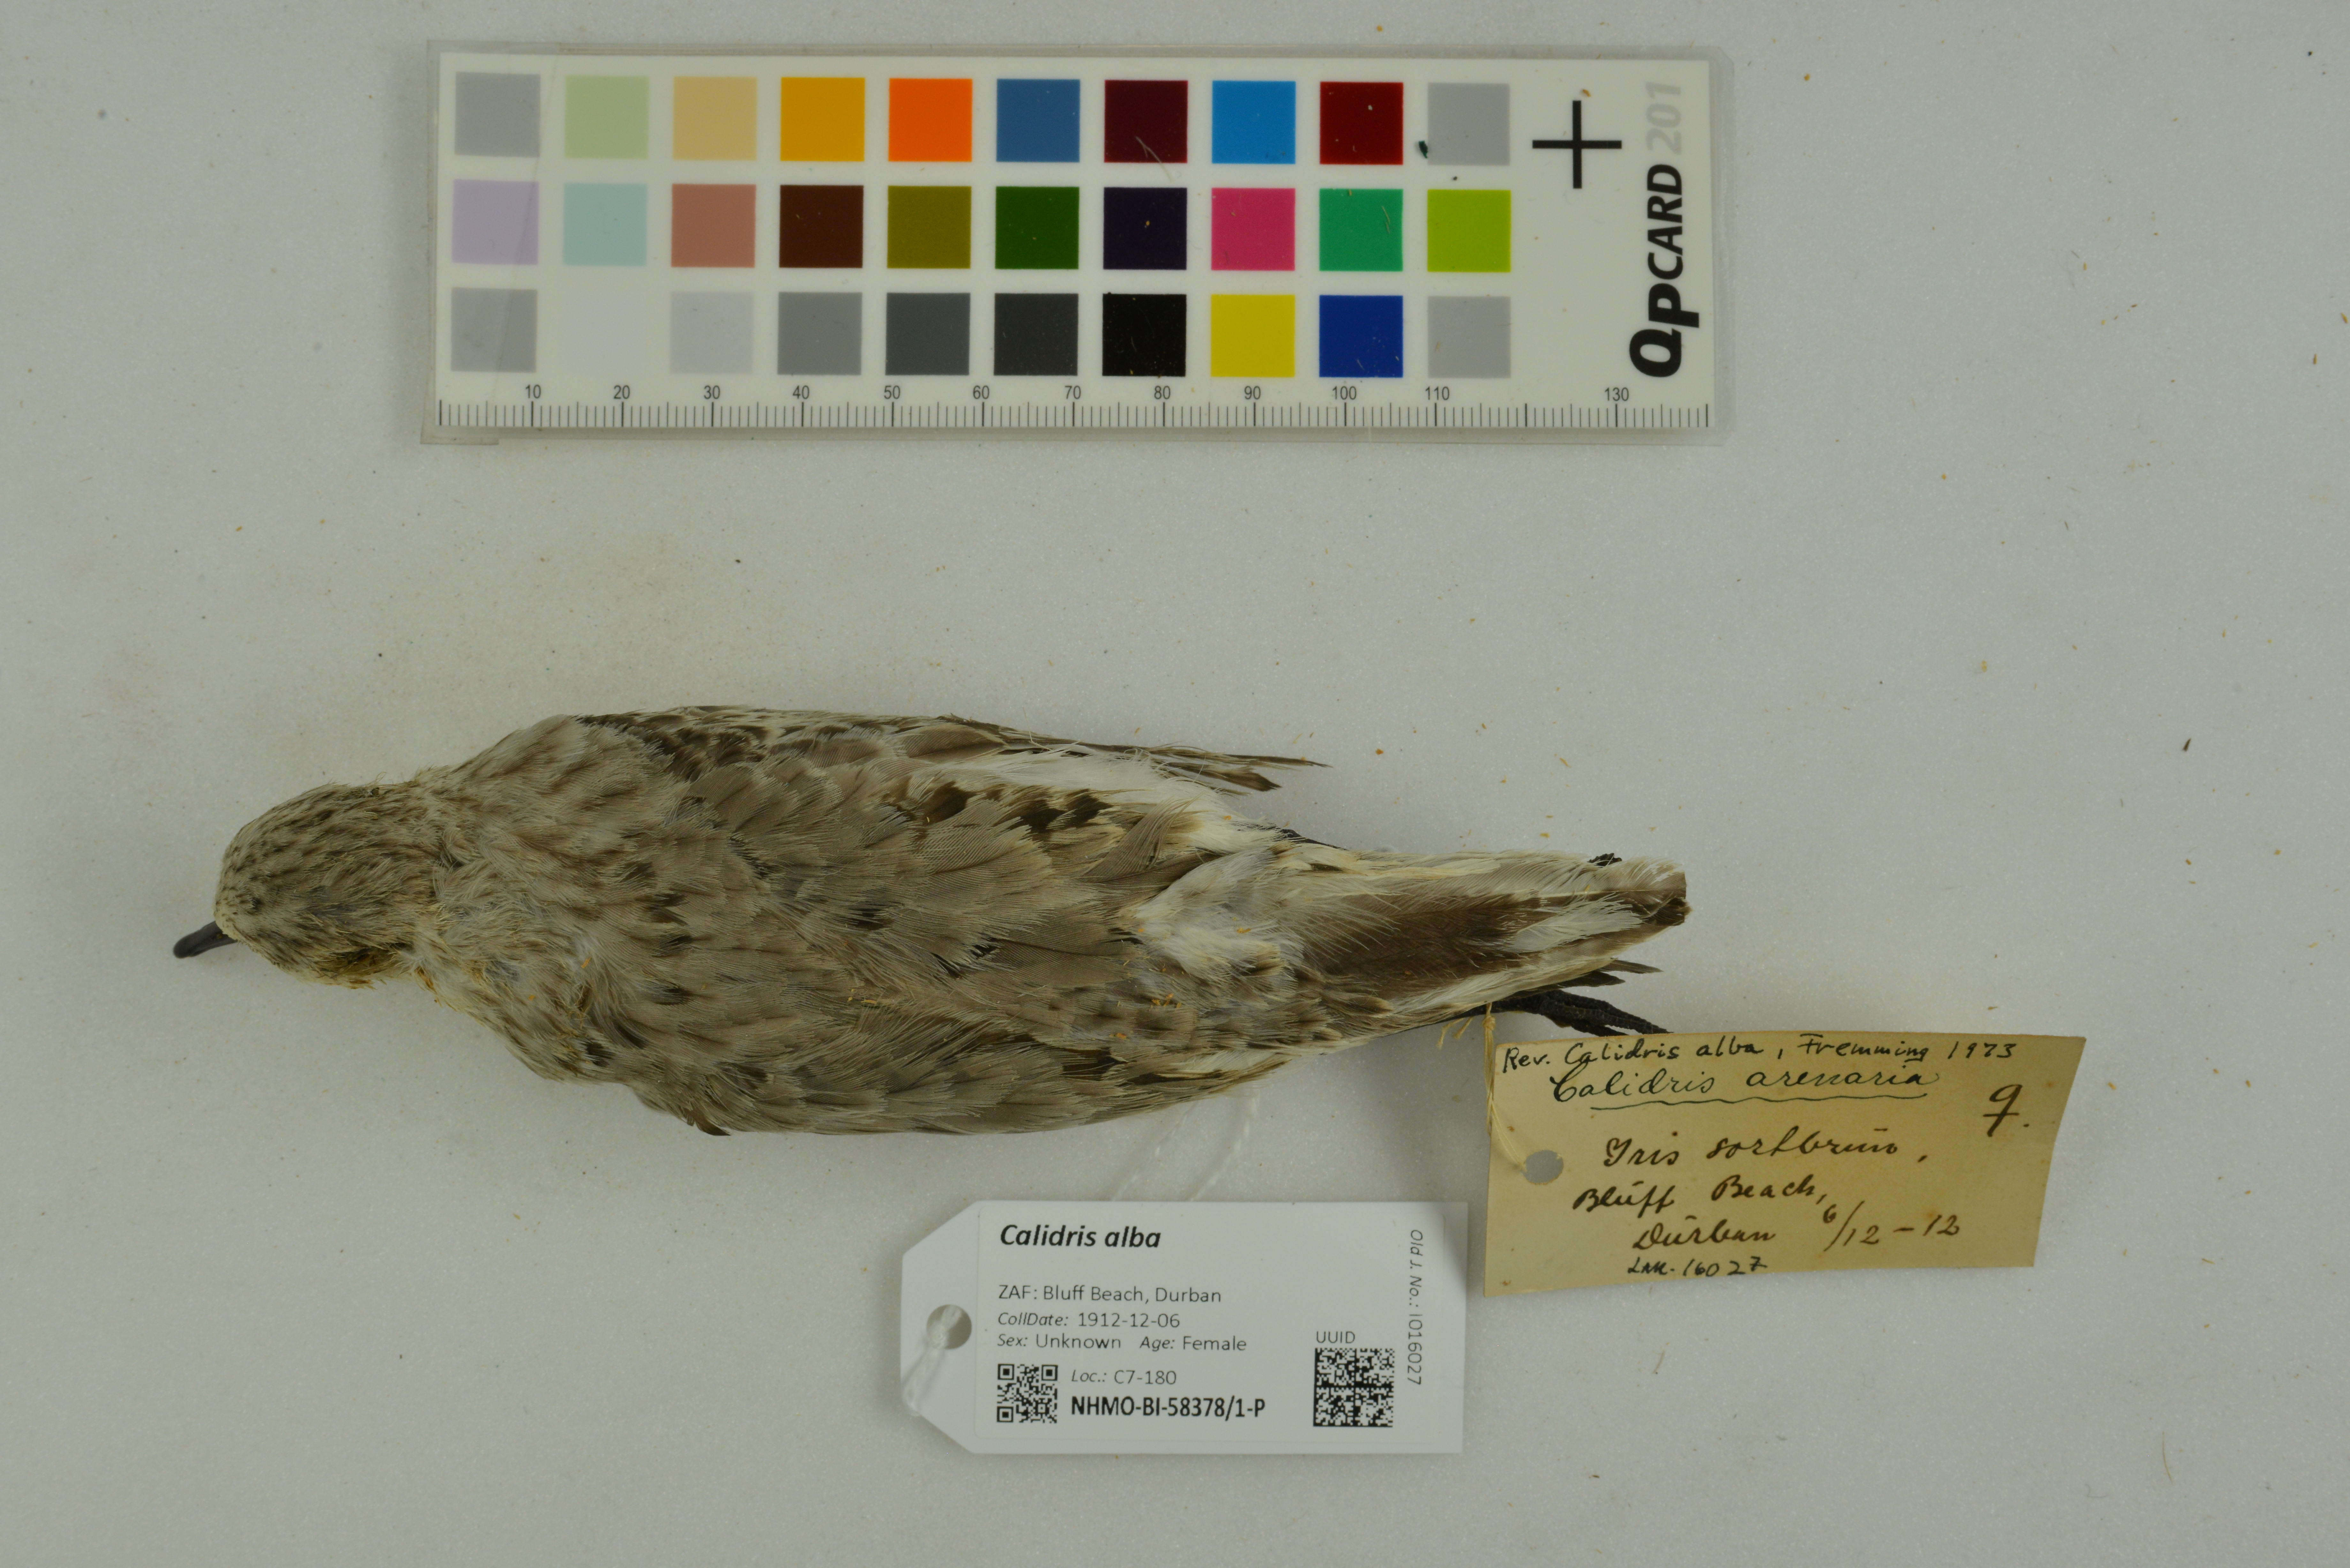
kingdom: Animalia
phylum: Chordata
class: Aves
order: Charadriiformes
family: Scolopacidae
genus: Calidris
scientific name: Calidris alba
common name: Sanderling
